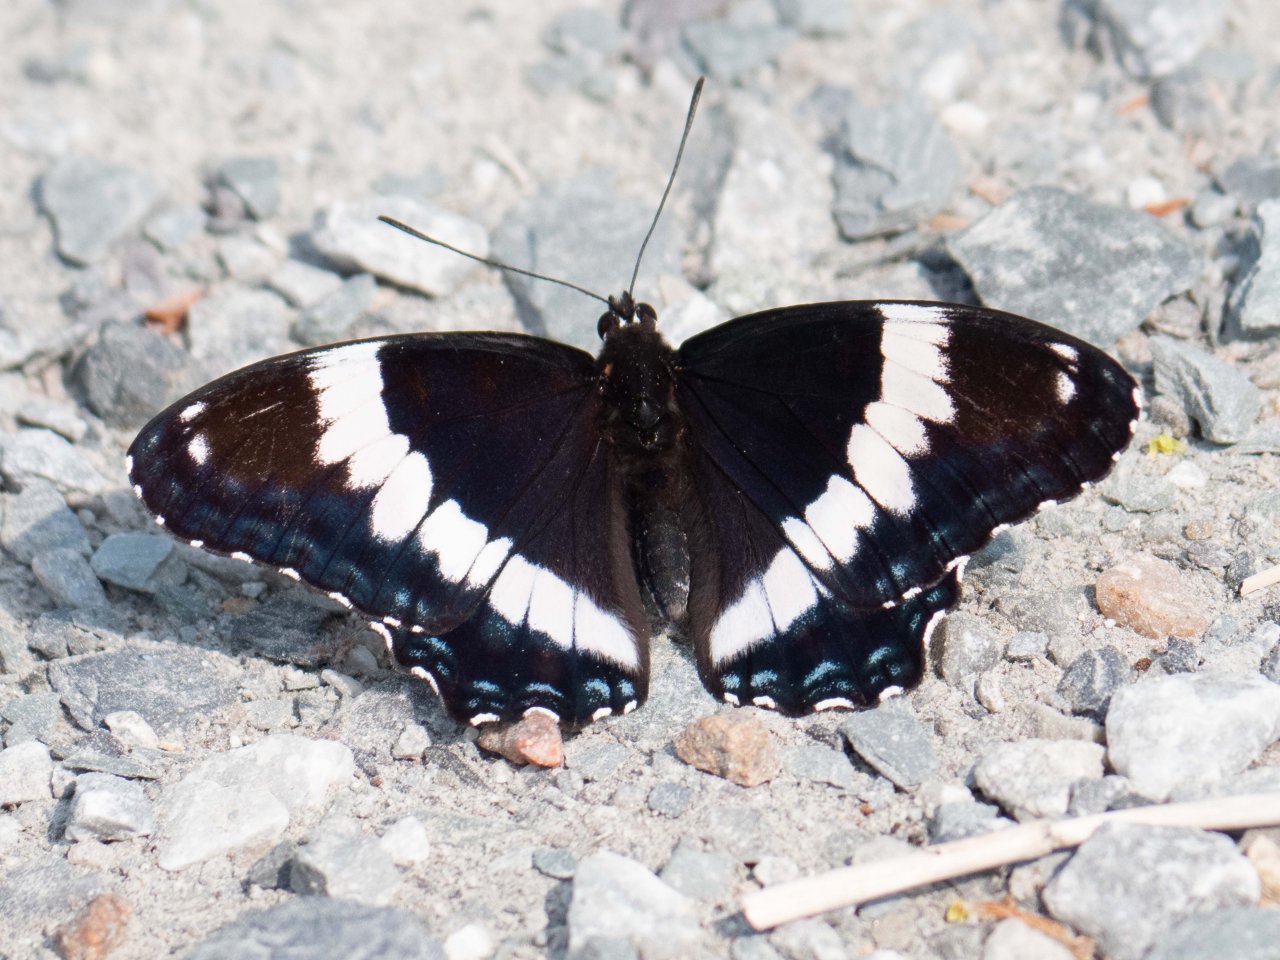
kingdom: Animalia
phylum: Arthropoda
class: Insecta
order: Lepidoptera
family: Nymphalidae
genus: Limenitis
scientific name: Limenitis arthemis
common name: Red-spotted Admiral
